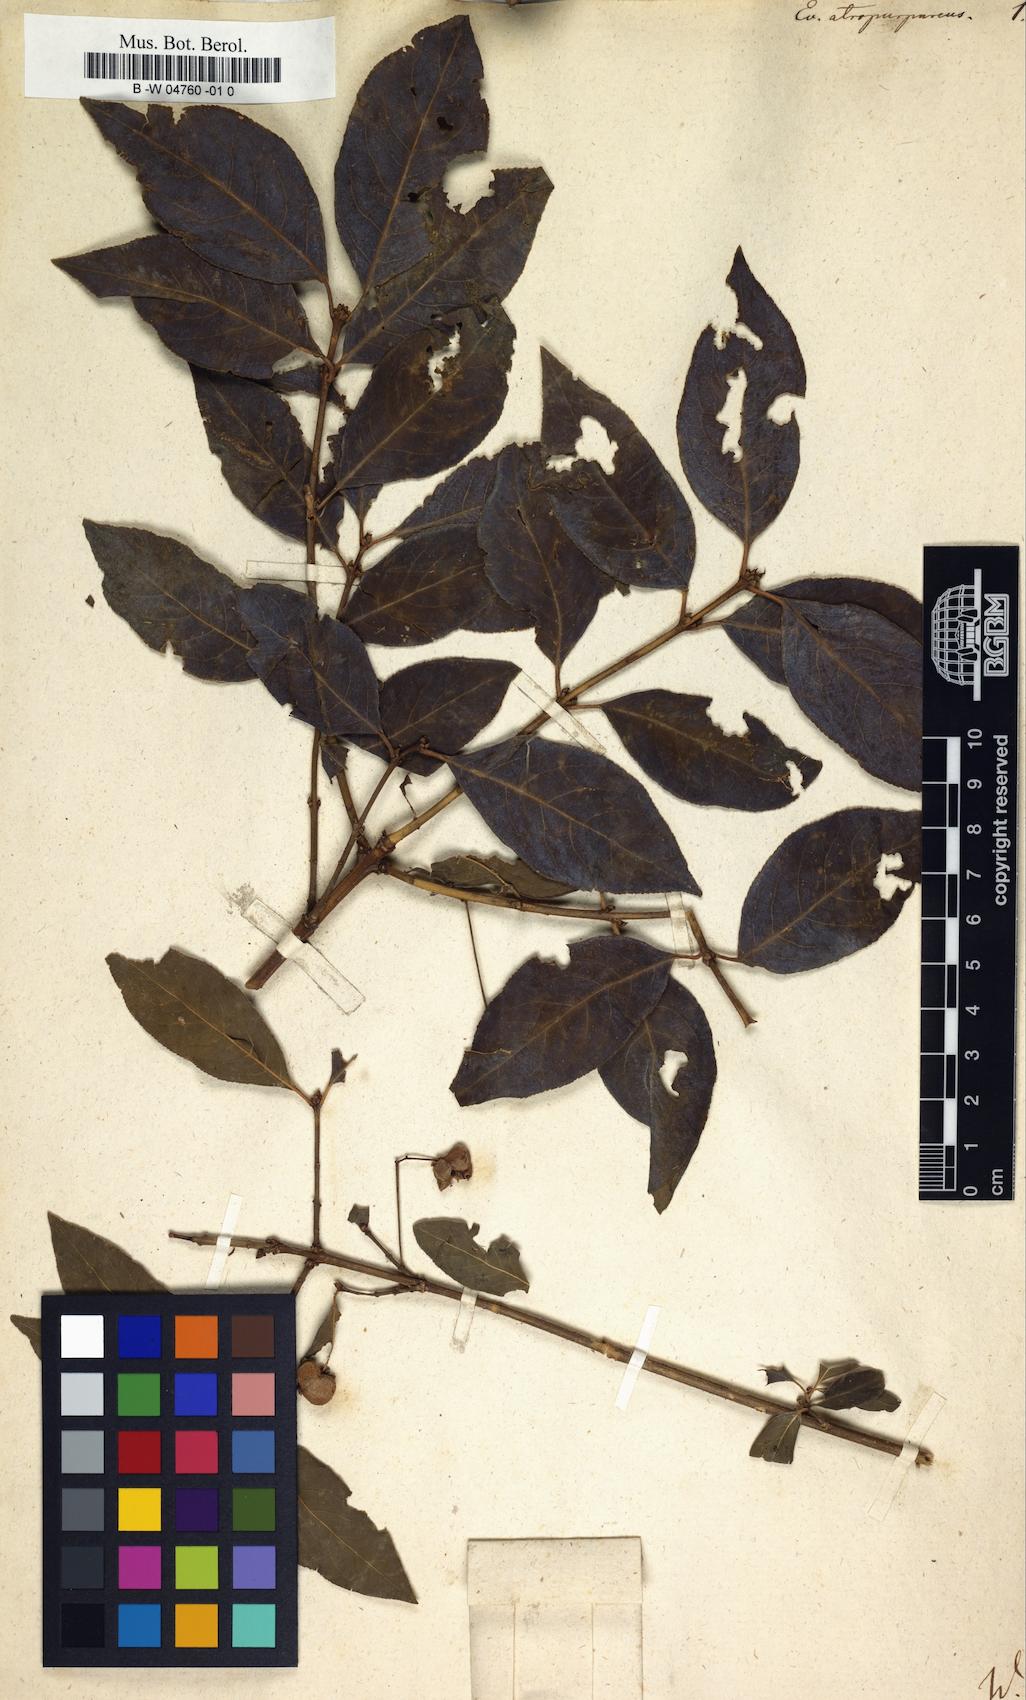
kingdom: Plantae
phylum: Tracheophyta
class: Magnoliopsida
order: Celastrales
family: Celastraceae
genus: Euonymus
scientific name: Euonymus atropurpureus
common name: Eastern wahoo
